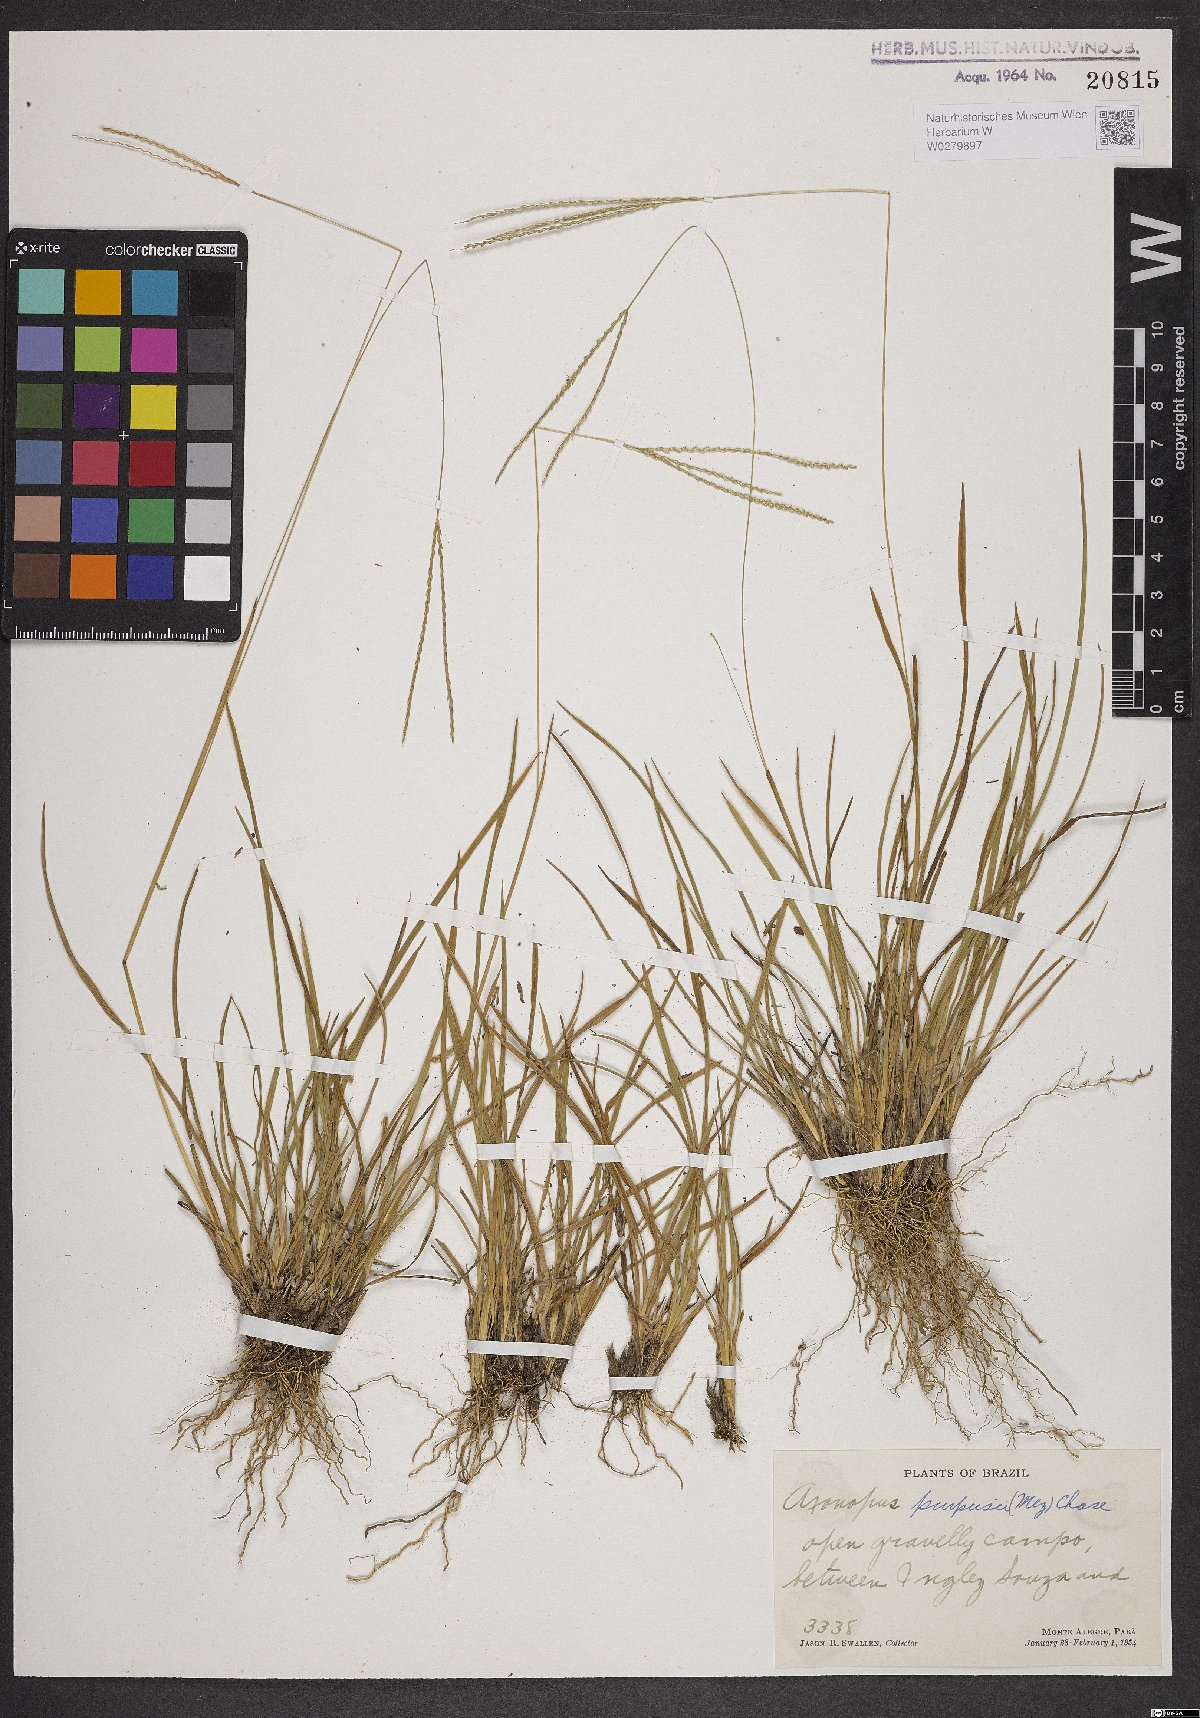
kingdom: Plantae
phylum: Tracheophyta
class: Liliopsida
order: Poales
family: Poaceae
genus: Axonopus
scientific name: Axonopus purpusii
